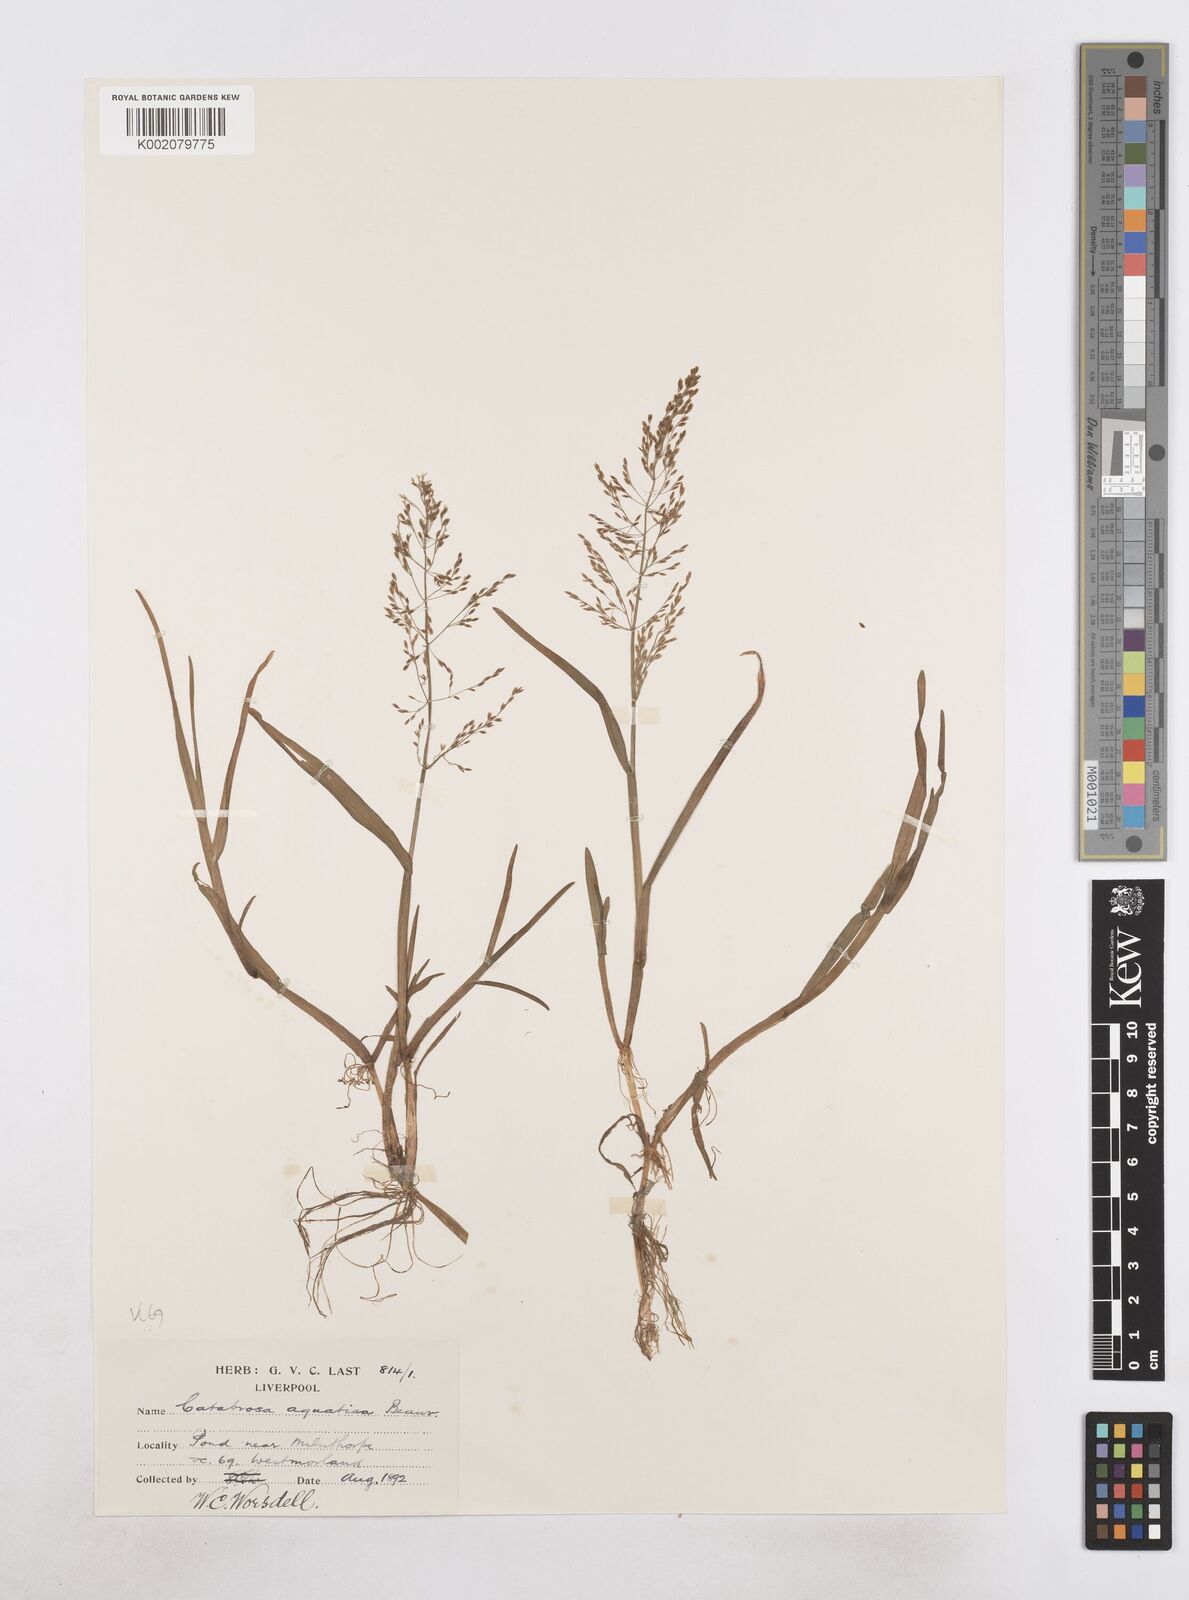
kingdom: Plantae
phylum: Tracheophyta
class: Liliopsida
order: Poales
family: Poaceae
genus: Catabrosa
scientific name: Catabrosa aquatica
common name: Whorl-grass
